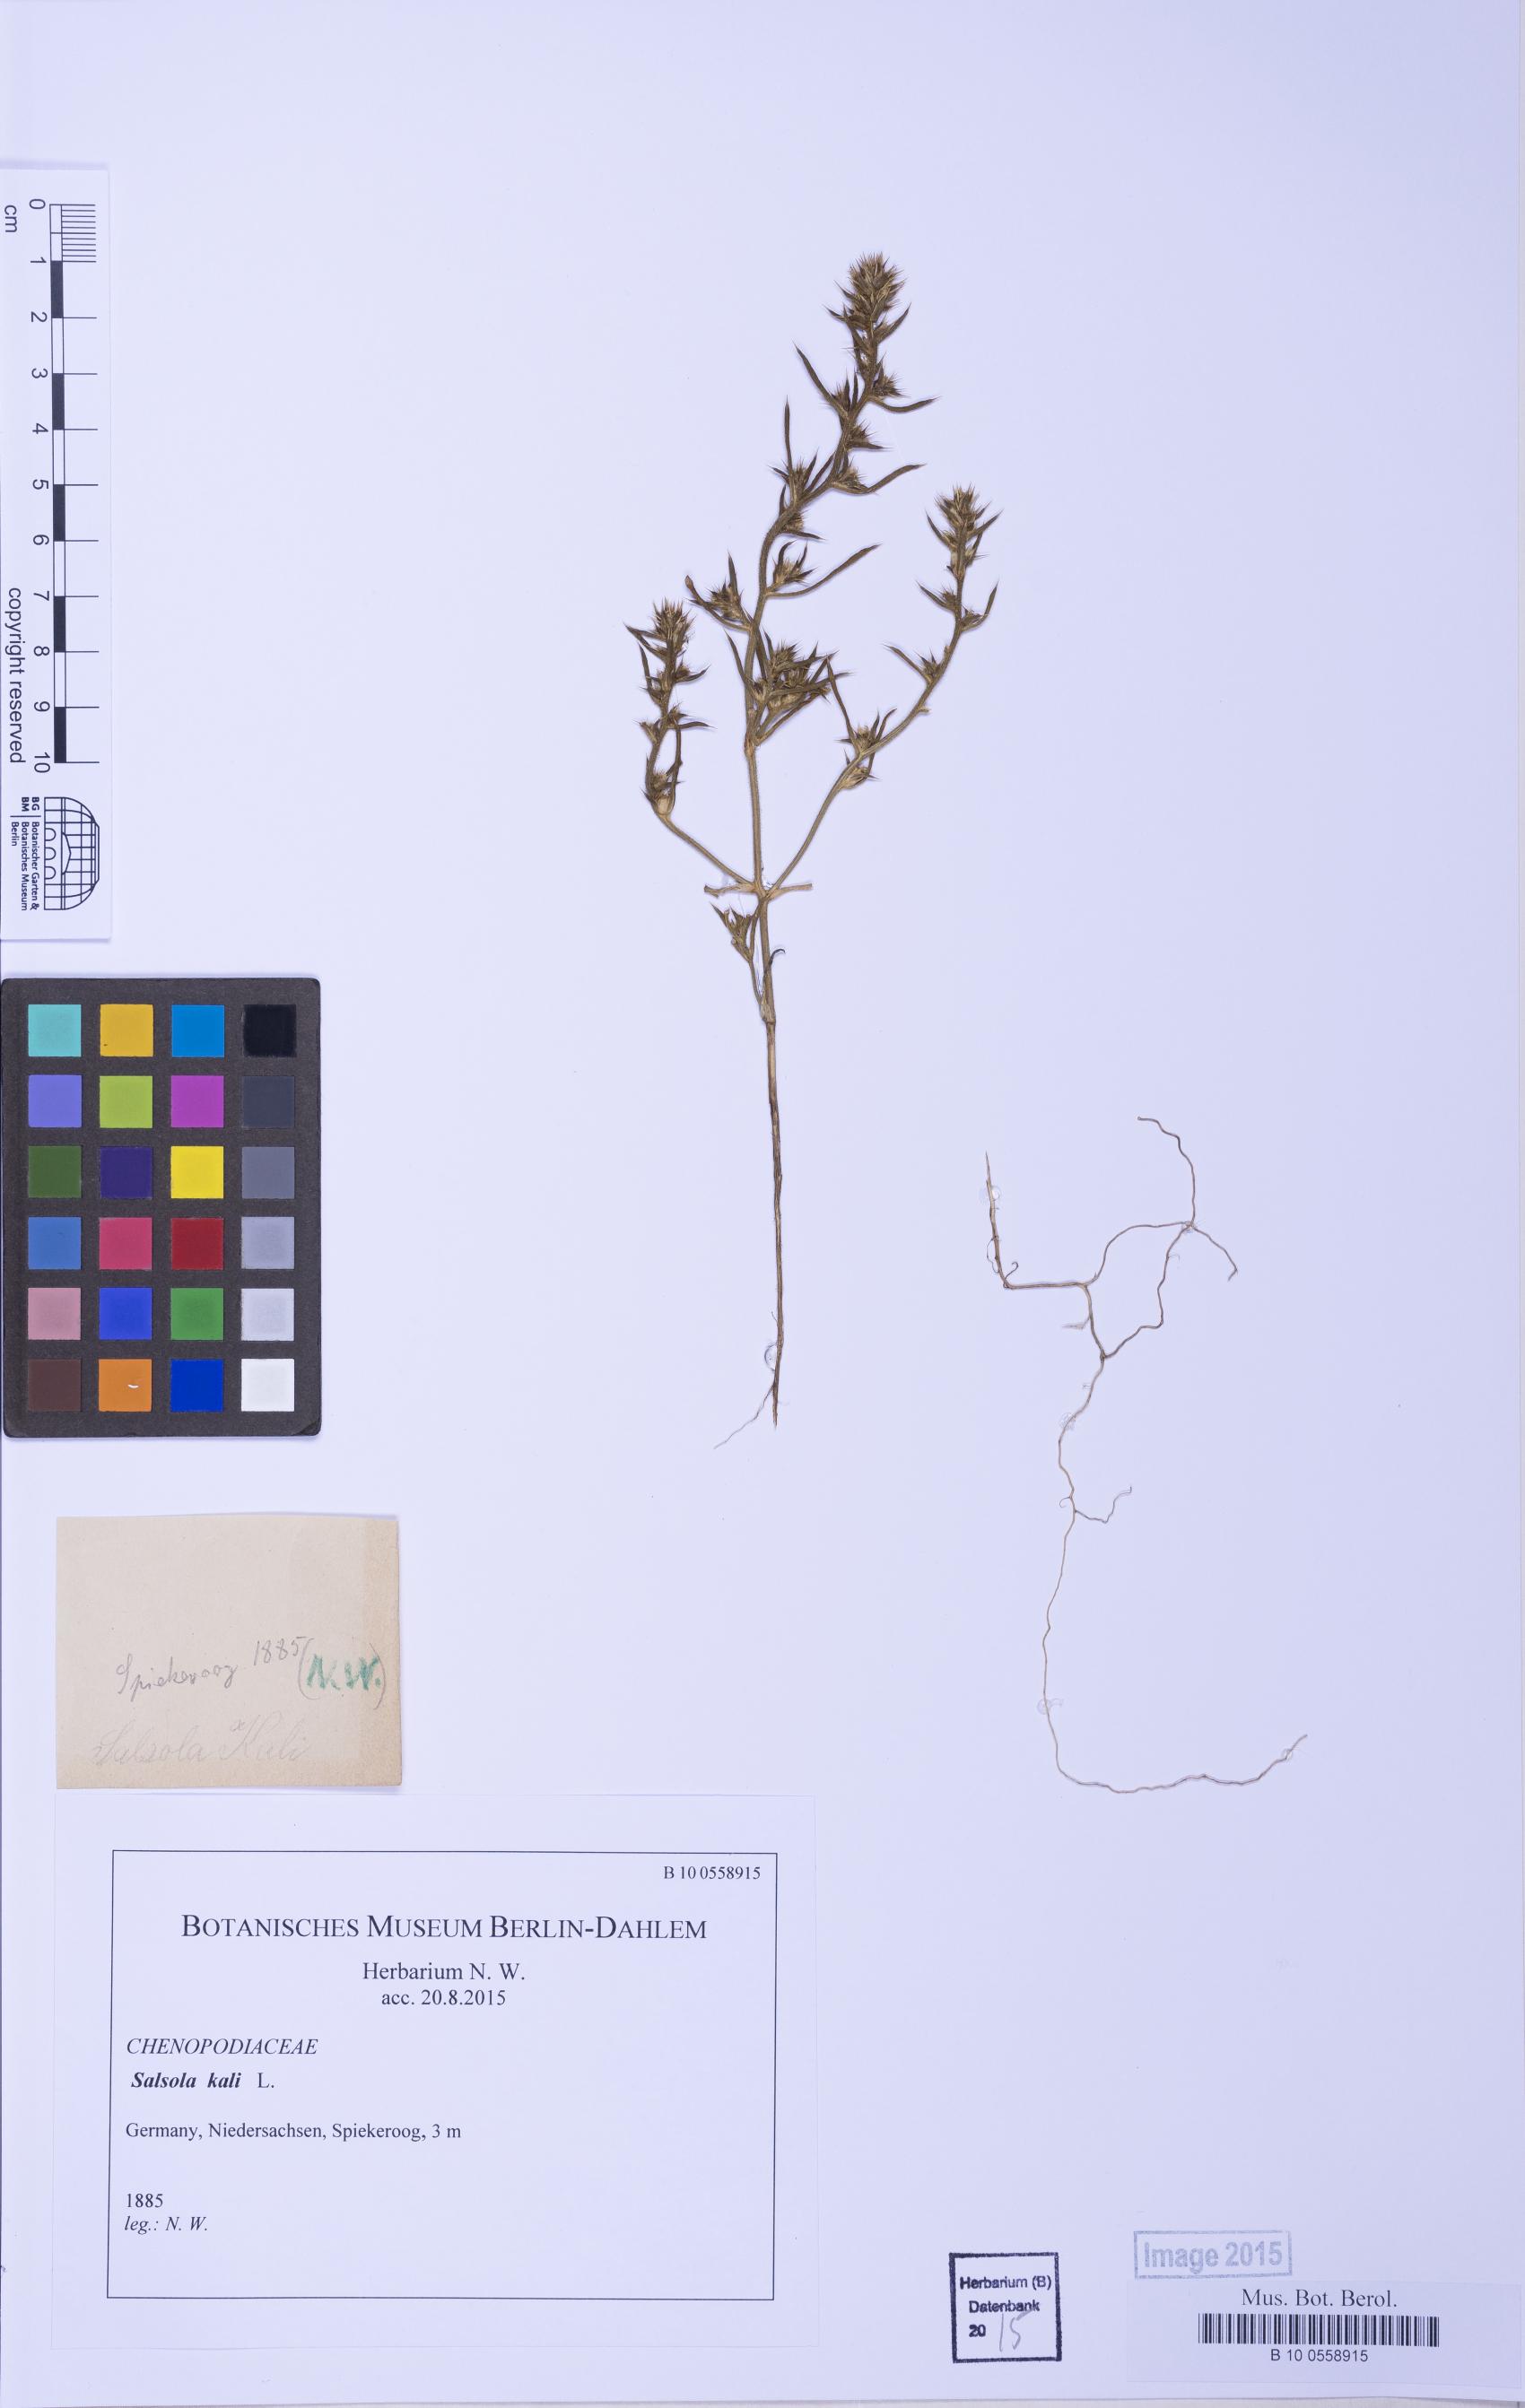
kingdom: Plantae
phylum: Tracheophyta
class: Magnoliopsida
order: Caryophyllales
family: Amaranthaceae
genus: Salsola
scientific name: Salsola kali
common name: Saltwort
